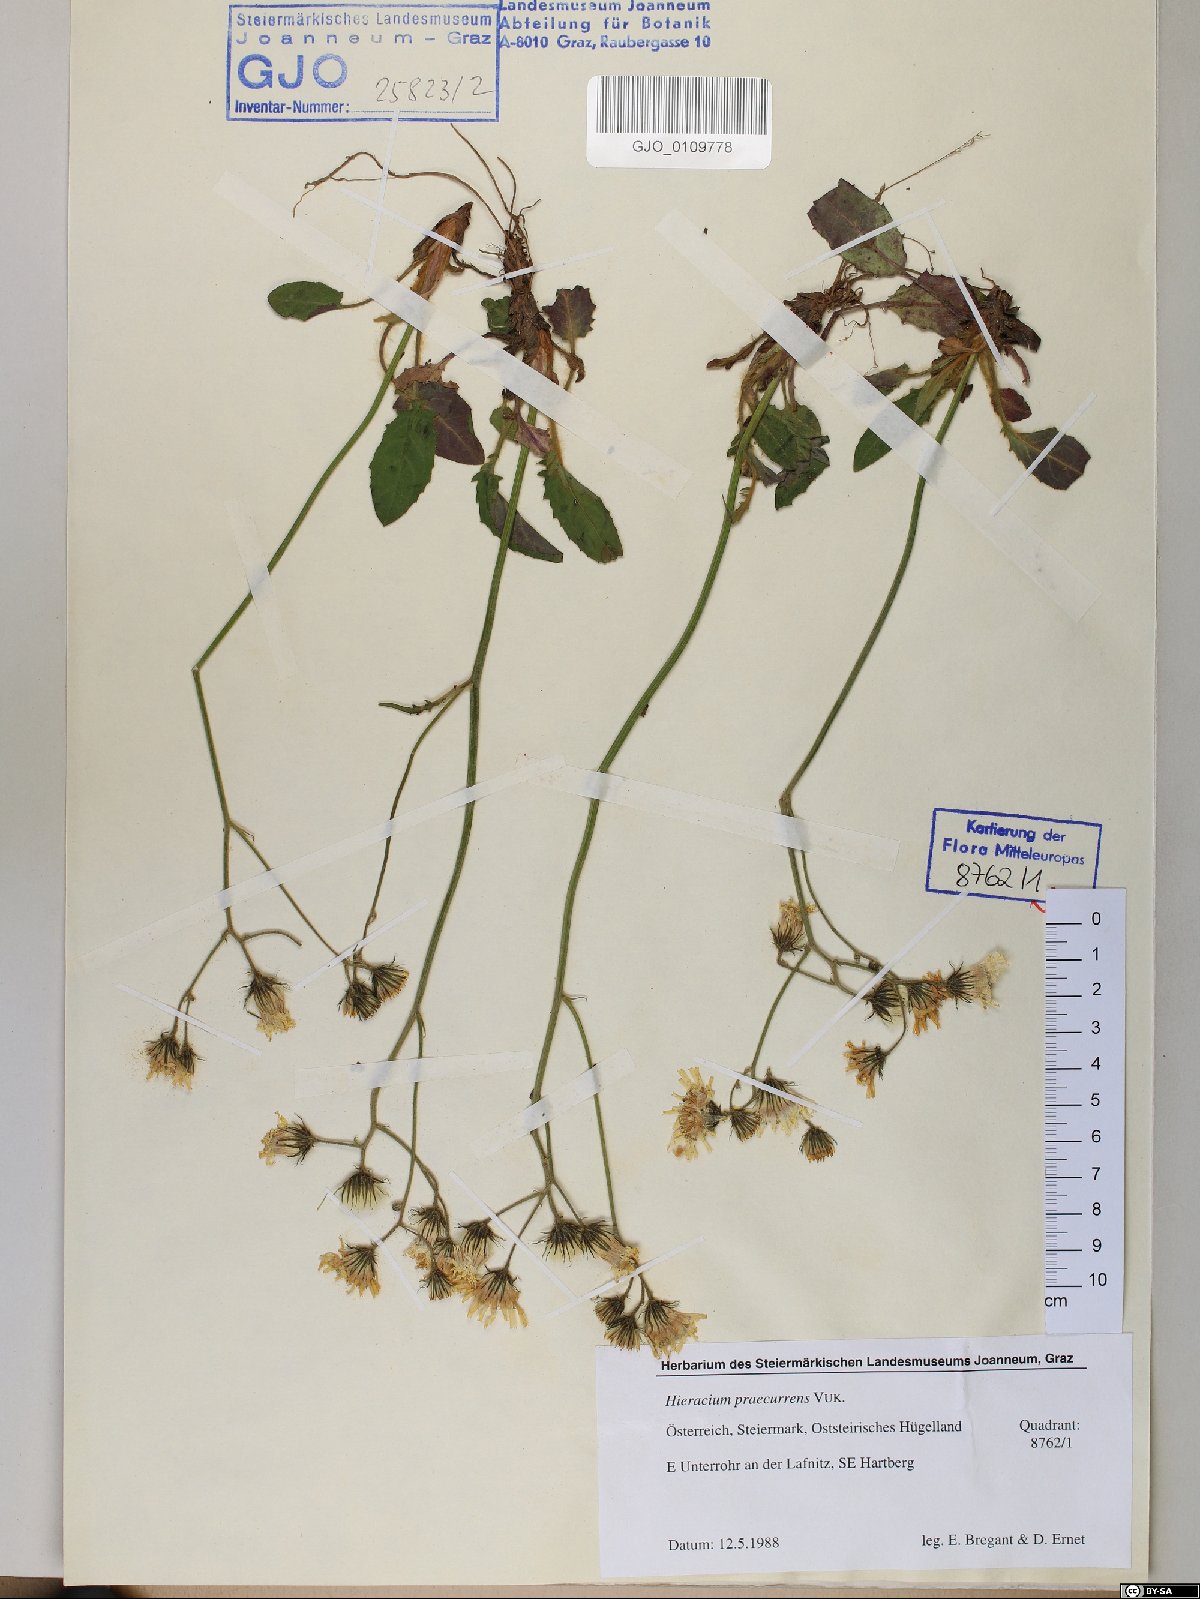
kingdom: Plantae
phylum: Tracheophyta
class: Magnoliopsida
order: Asterales
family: Asteraceae
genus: Hieracium
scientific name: Hieracium rotundatum
